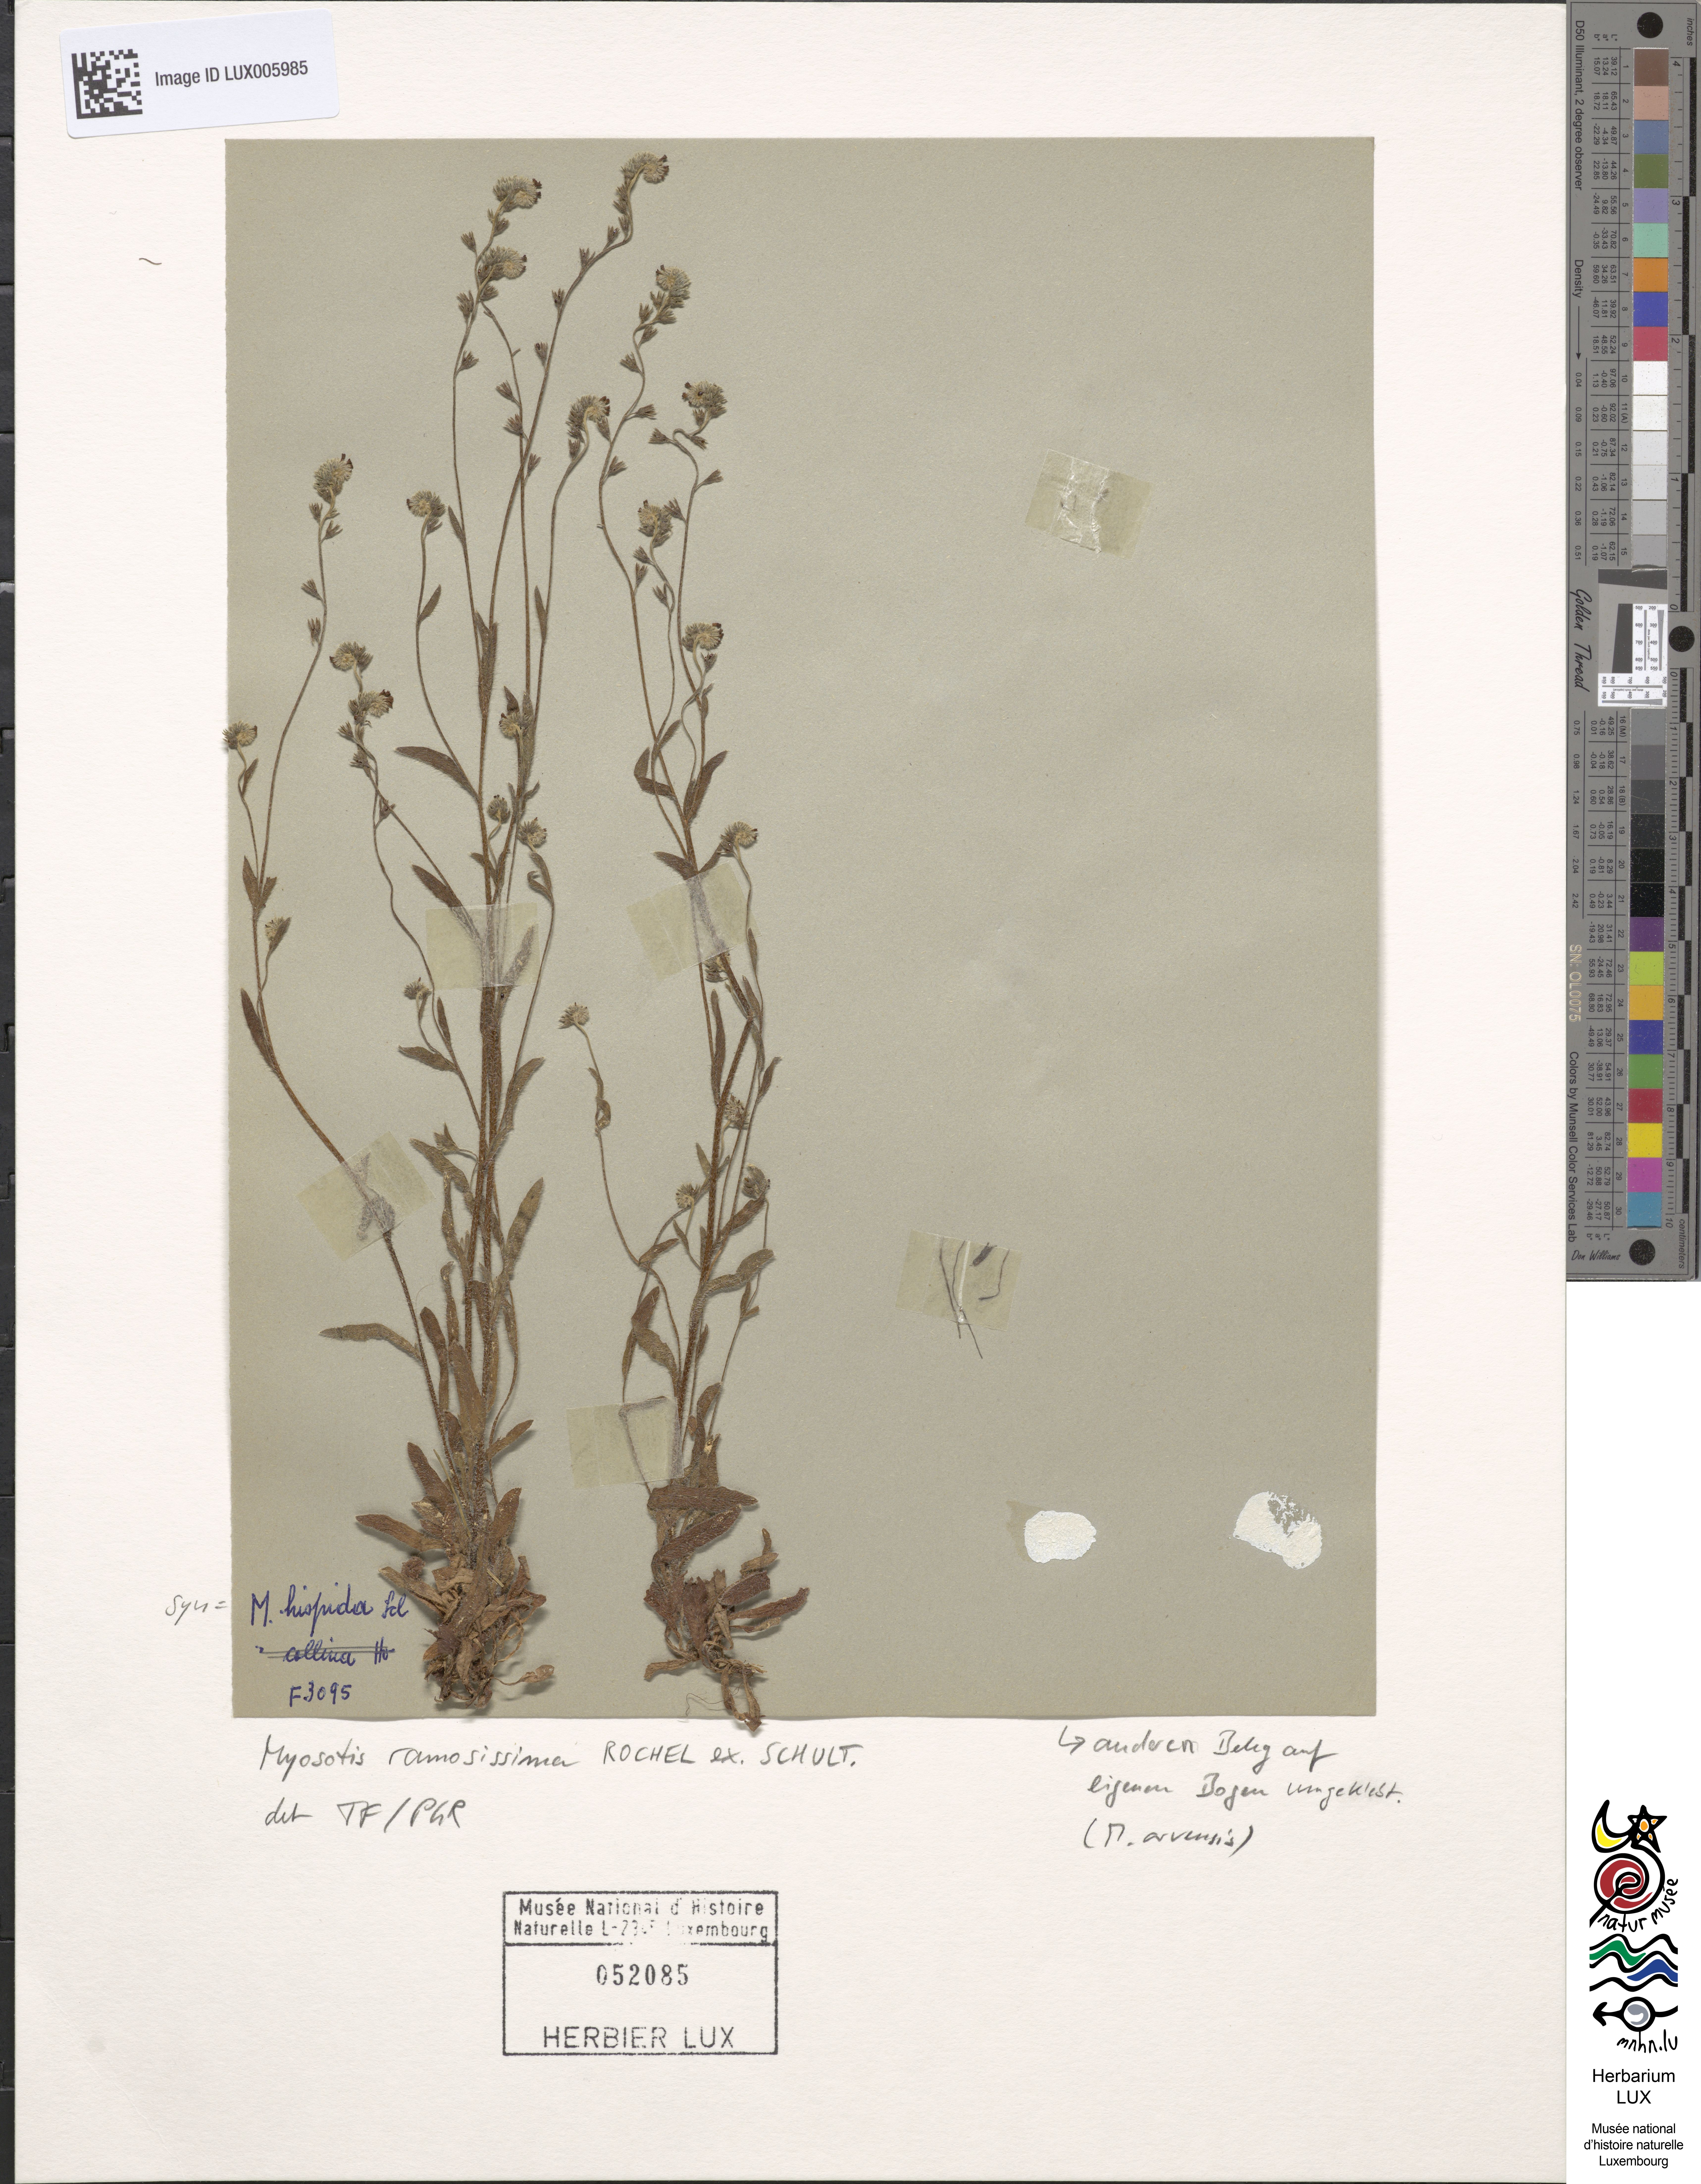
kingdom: Plantae
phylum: Tracheophyta
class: Magnoliopsida
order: Boraginales
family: Boraginaceae
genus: Myosotis
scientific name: Myosotis ramosissima
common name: Early forget-me-not
